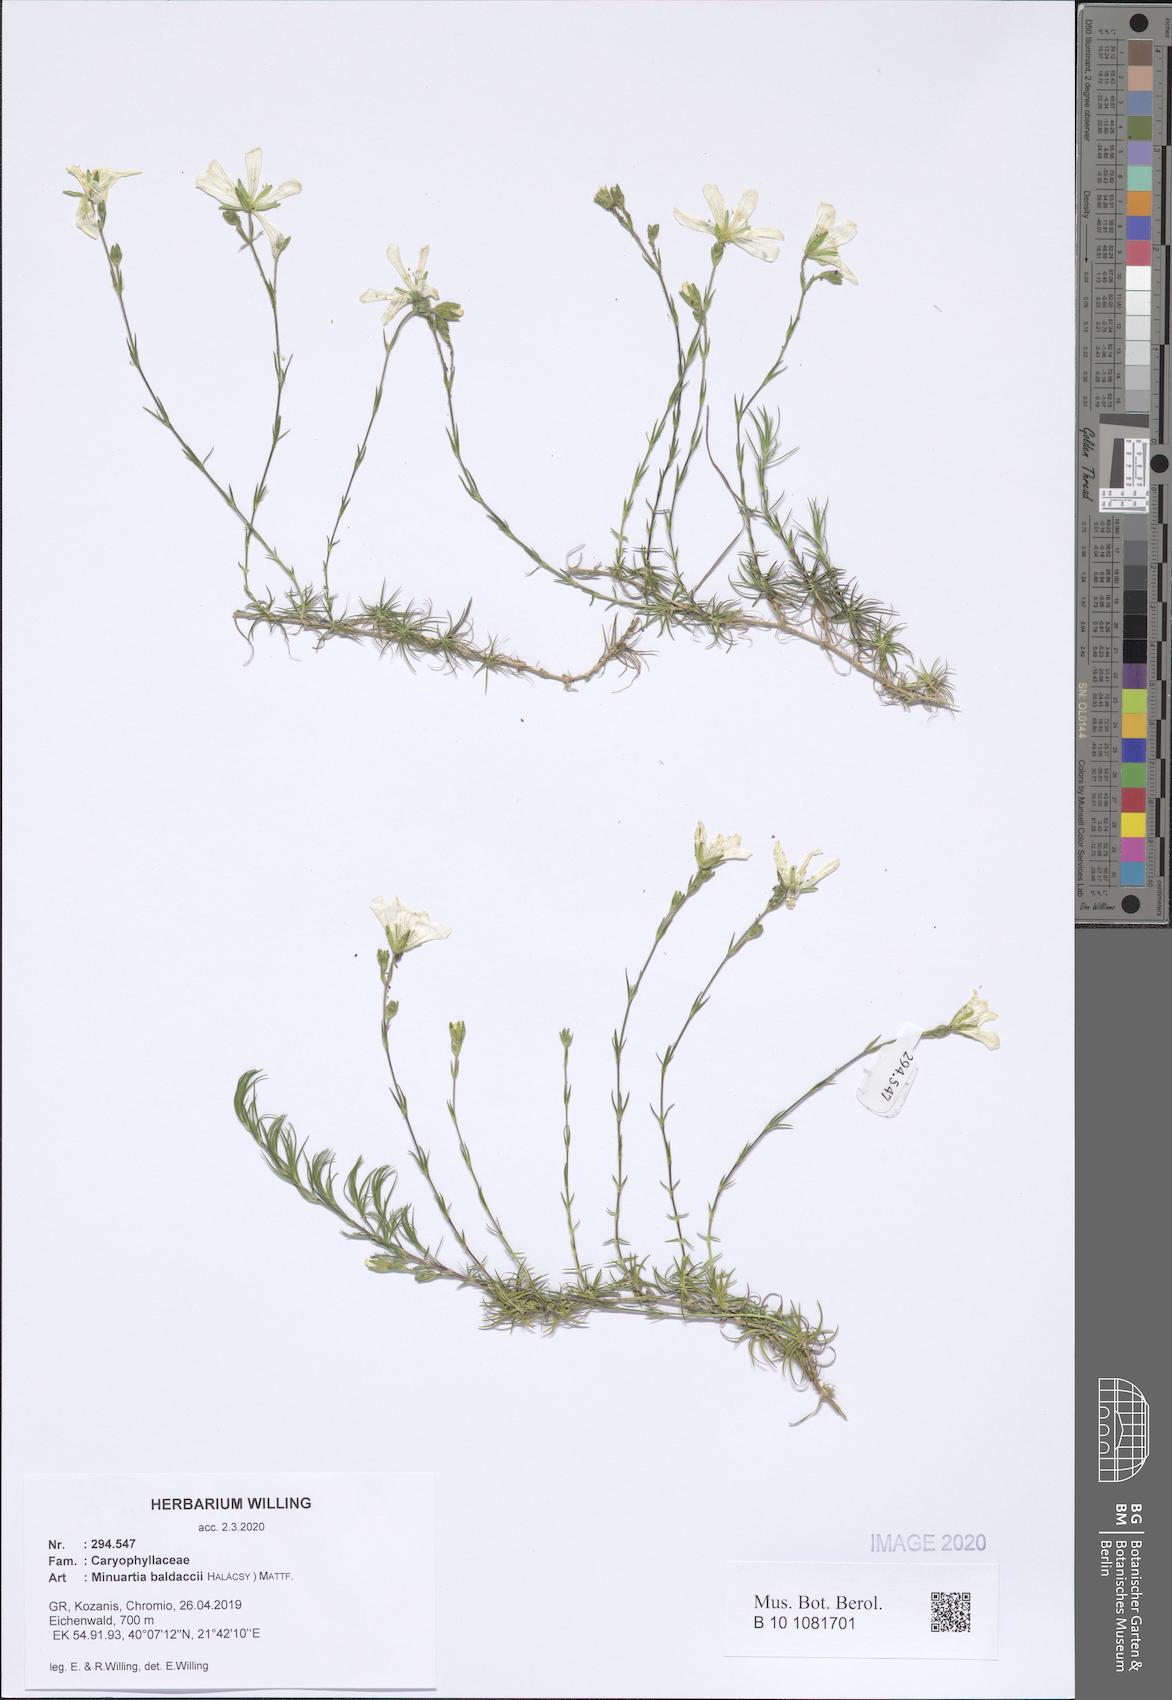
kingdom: Plantae
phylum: Tracheophyta
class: Magnoliopsida
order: Caryophyllales
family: Caryophyllaceae
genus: Cherleria
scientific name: Cherleria baldaccii
